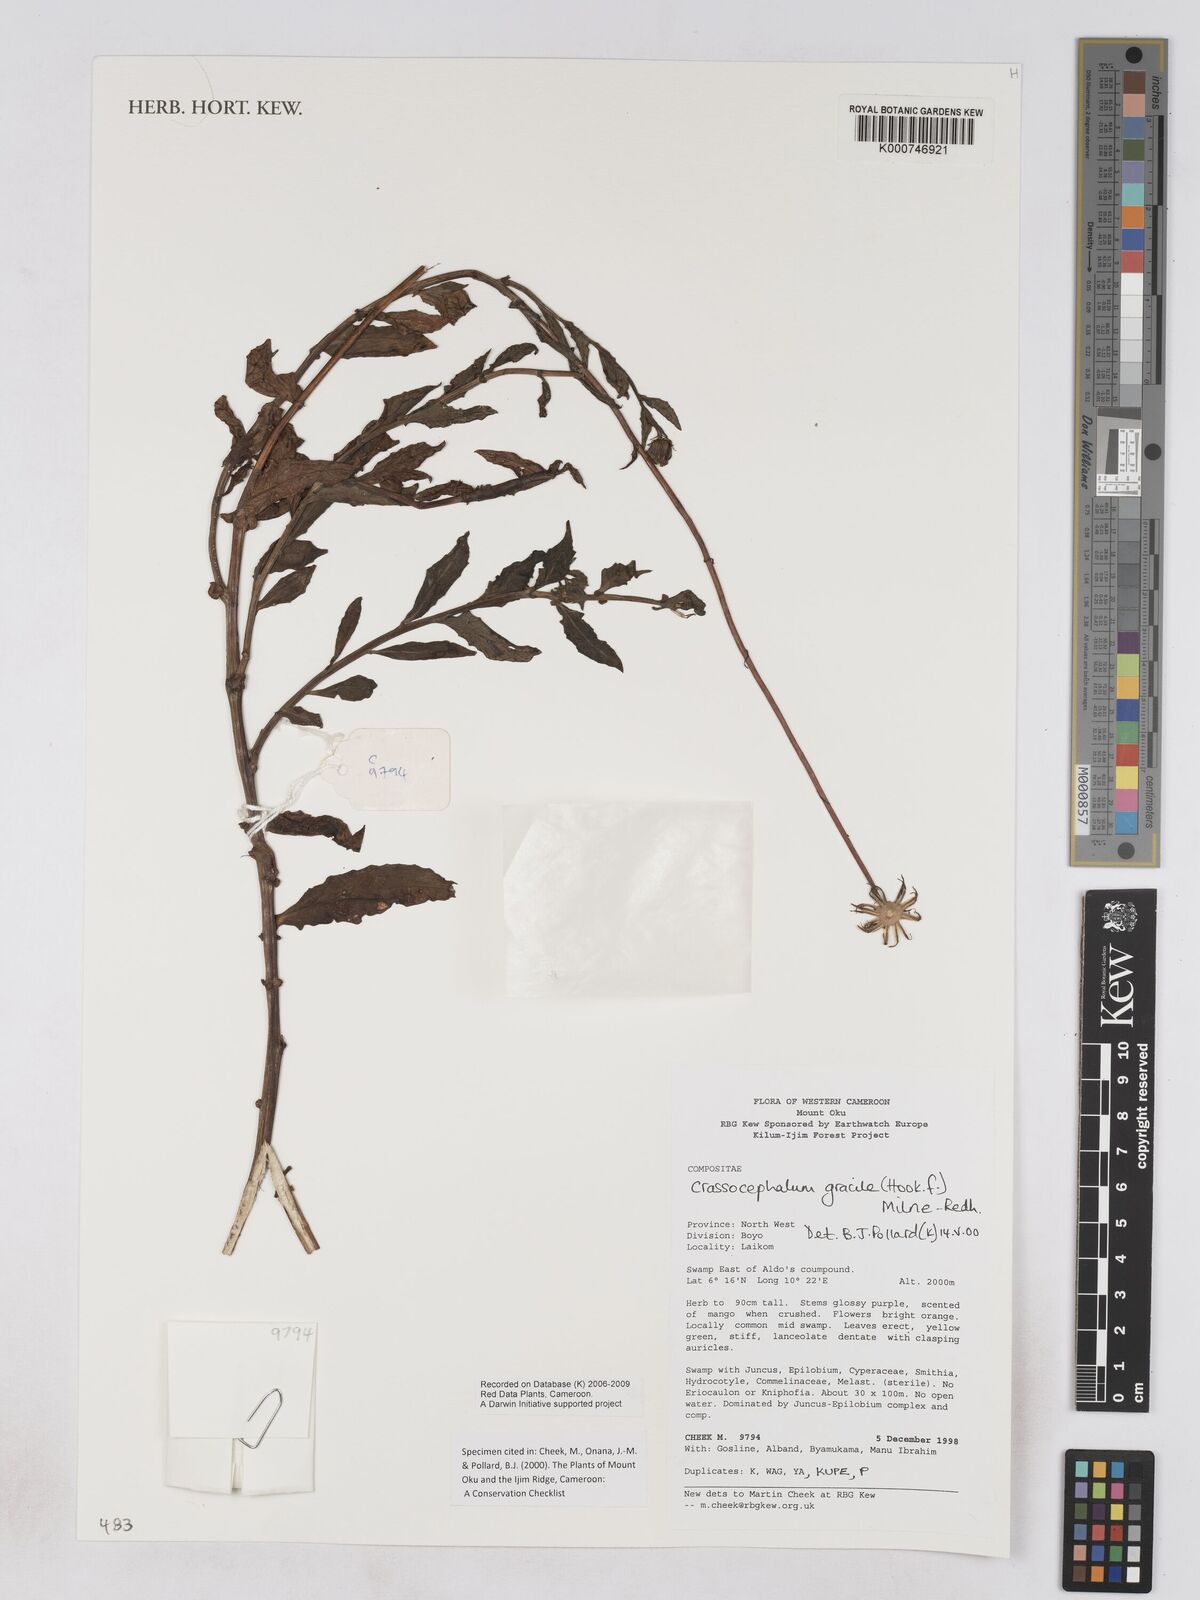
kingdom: Plantae
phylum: Tracheophyta
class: Magnoliopsida
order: Asterales
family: Asteraceae
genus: Crassocephalum
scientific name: Crassocephalum
